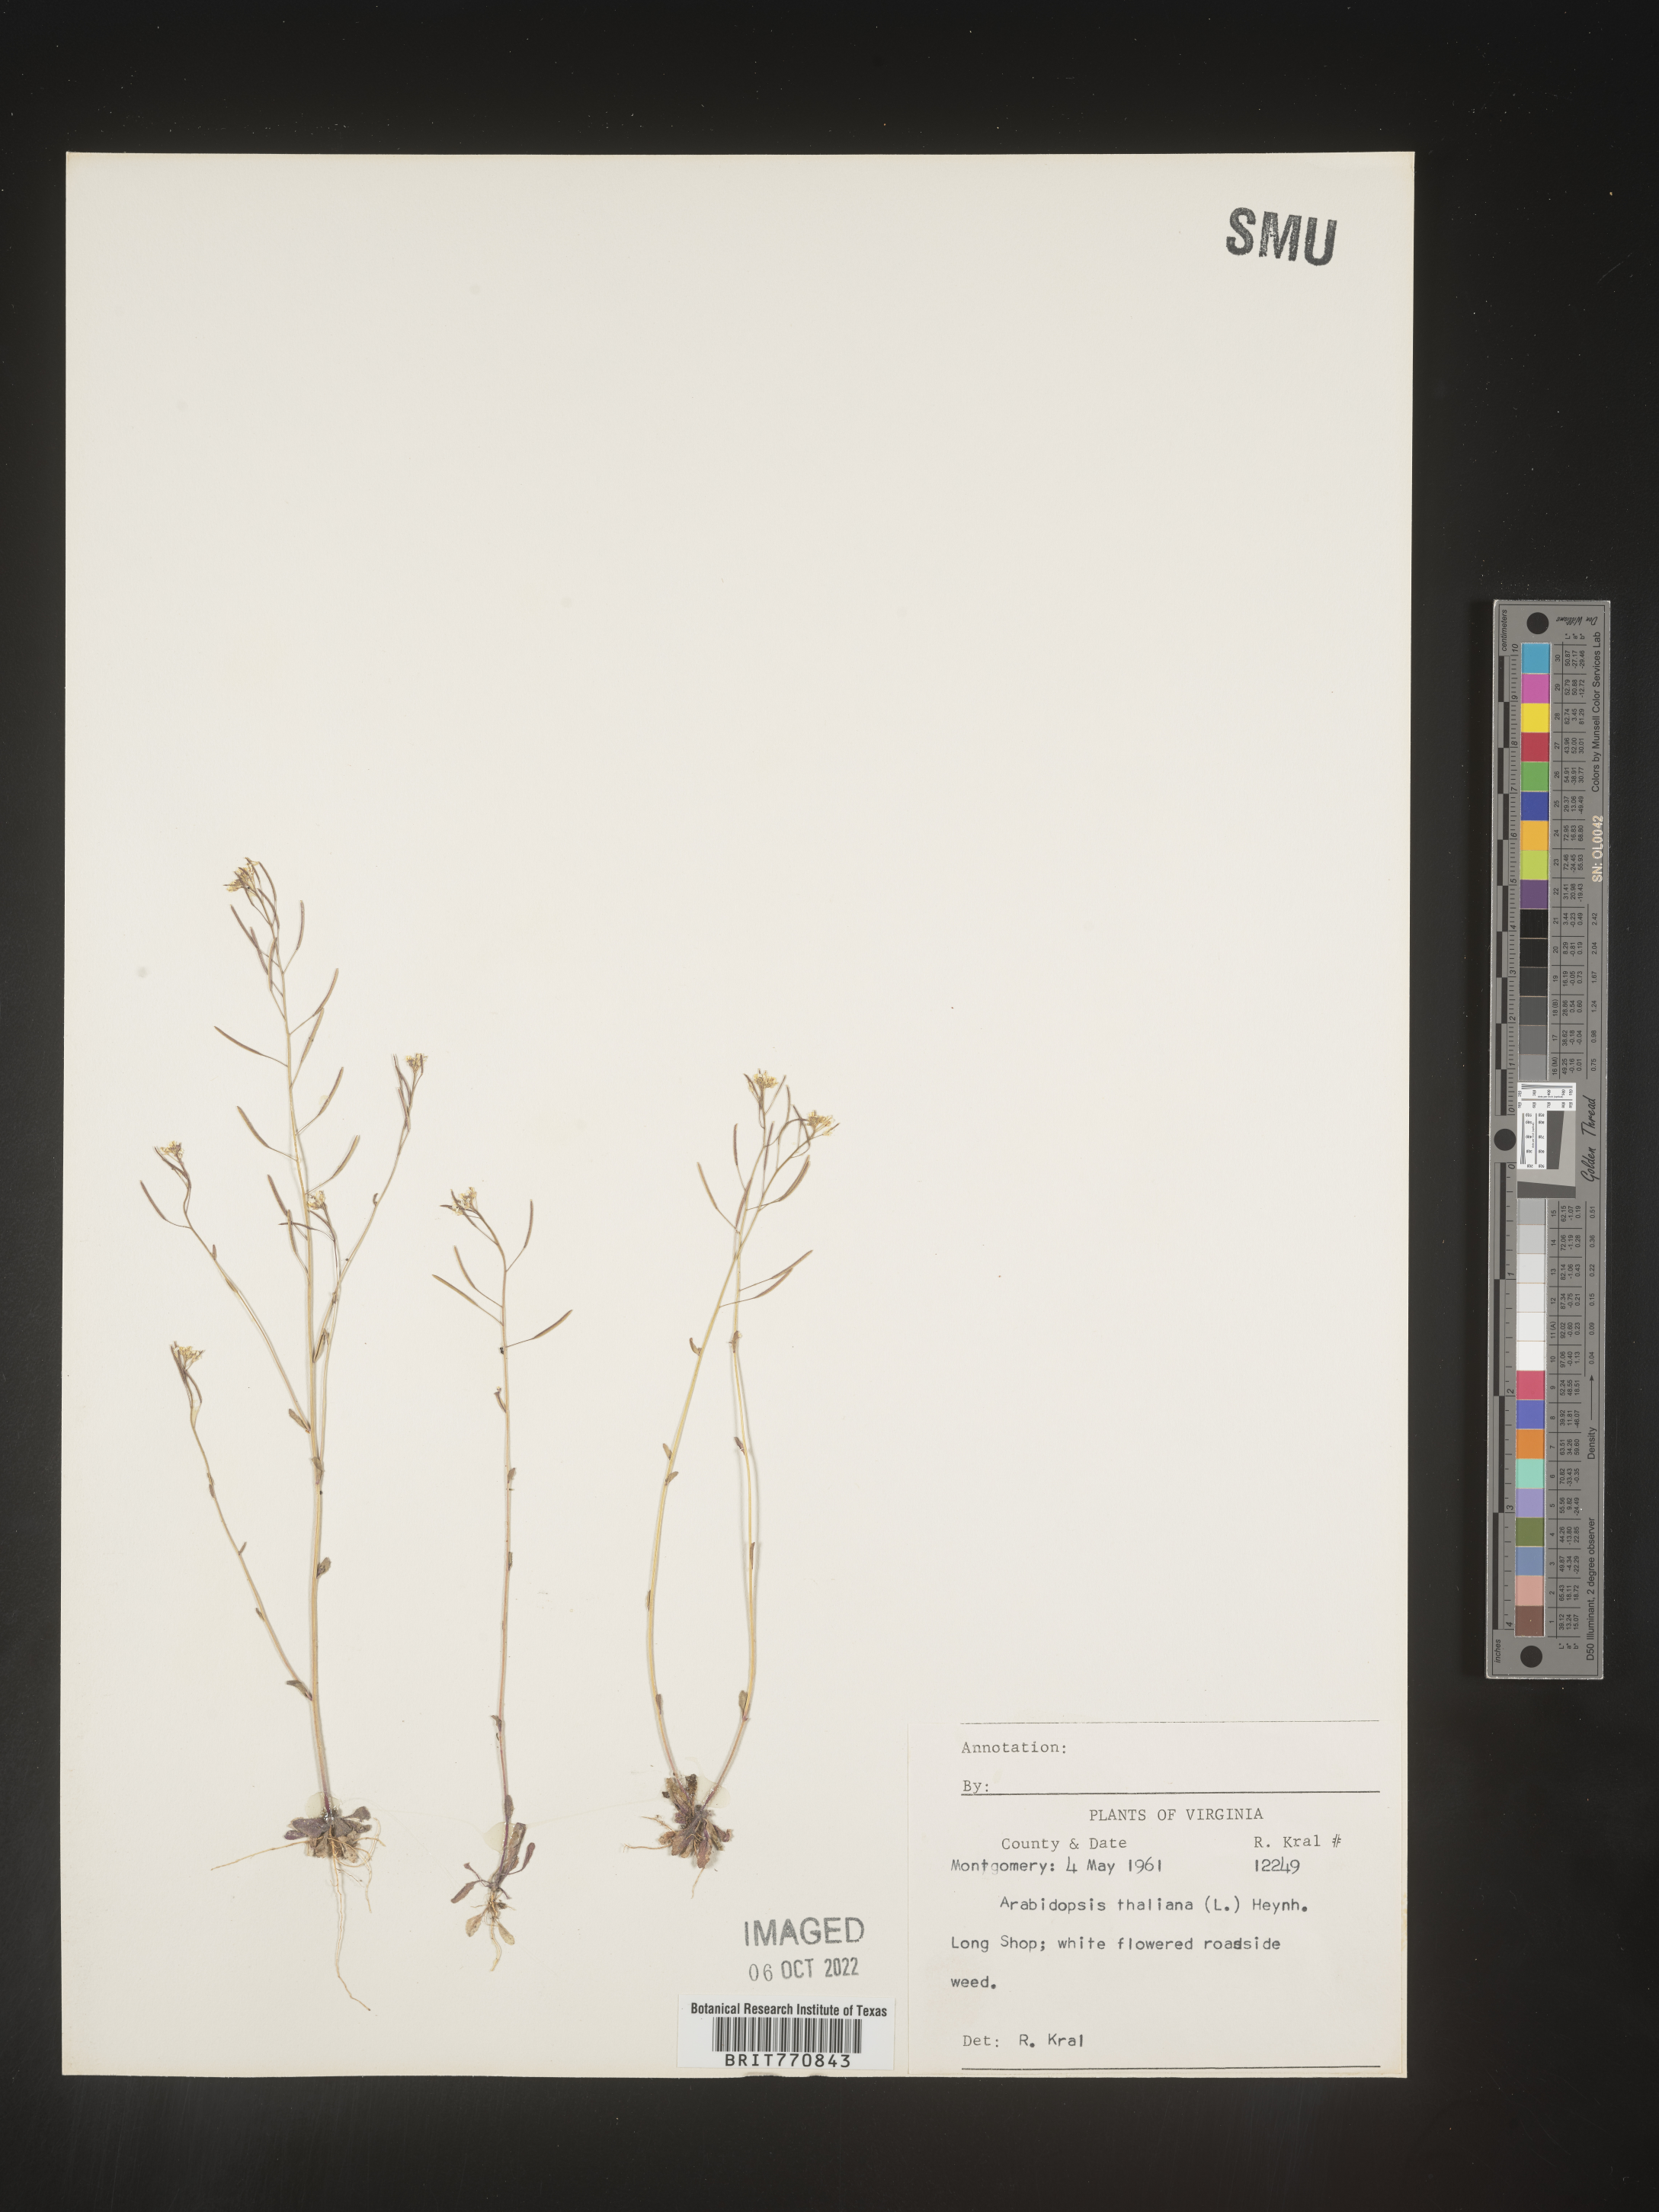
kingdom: Plantae
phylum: Tracheophyta
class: Magnoliopsida
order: Brassicales
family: Brassicaceae
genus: Arabidopsis
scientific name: Arabidopsis thaliana
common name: Thale cress
